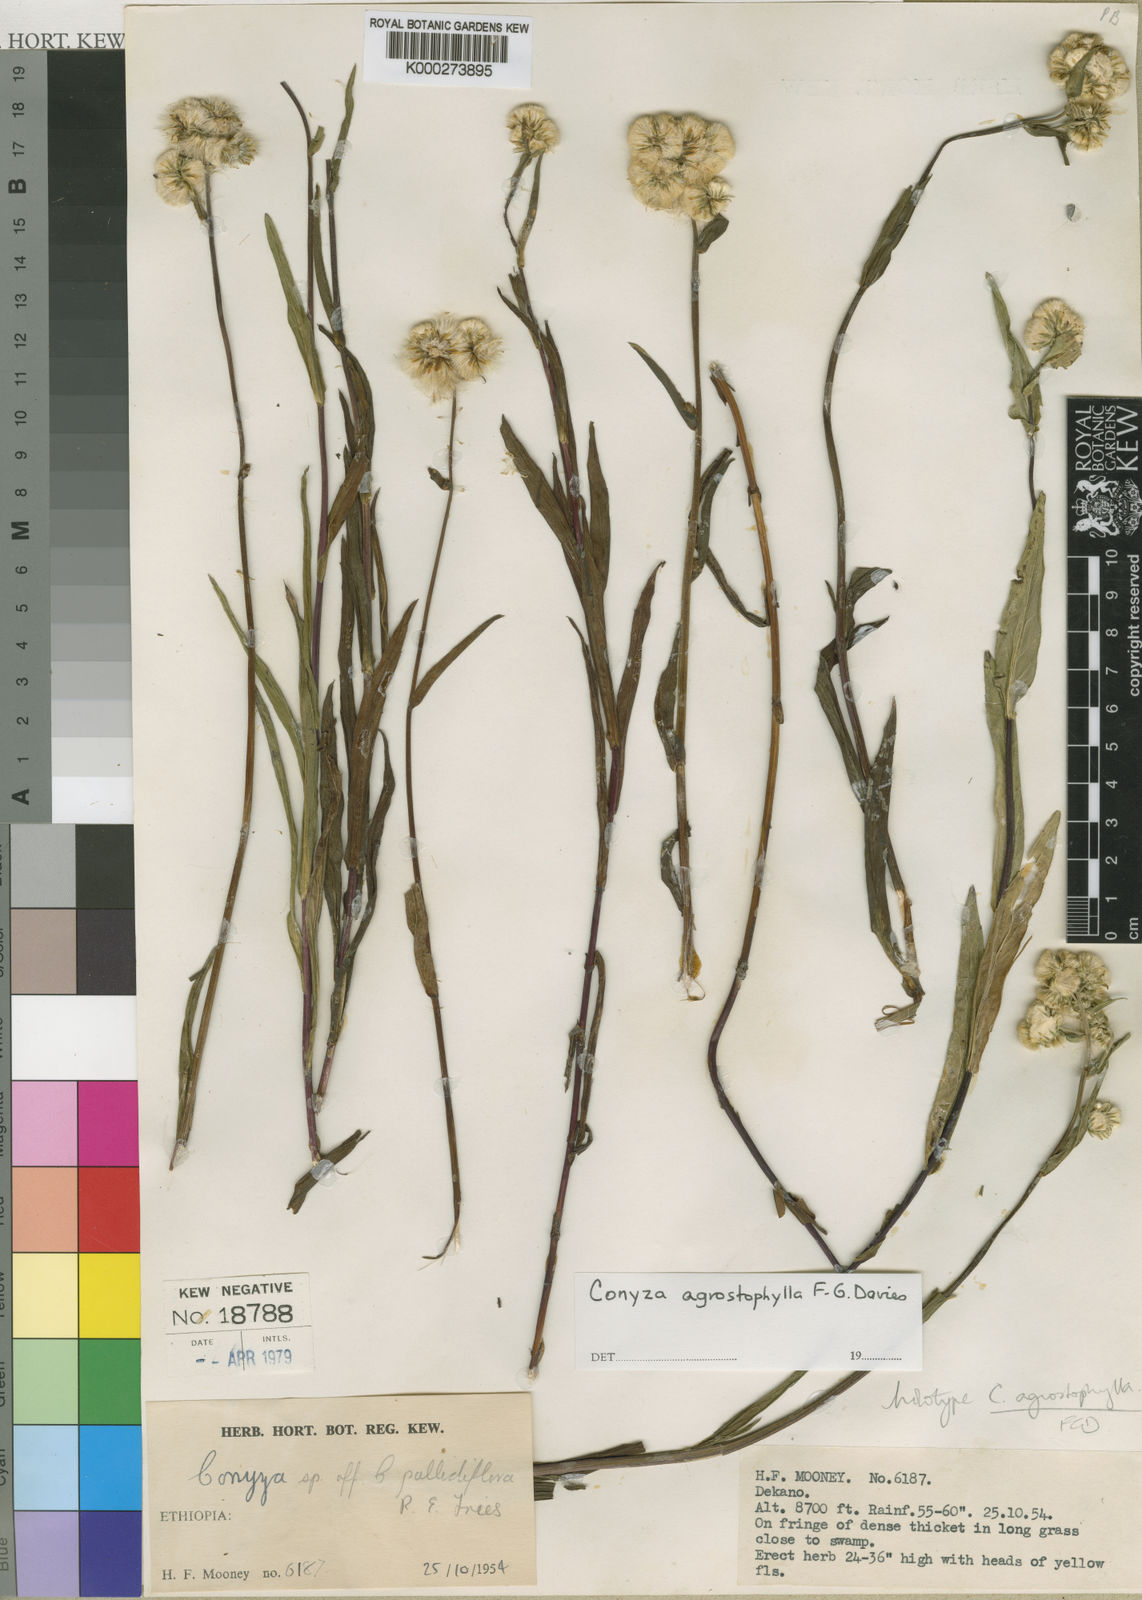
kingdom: Plantae
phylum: Tracheophyta
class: Magnoliopsida
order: Asterales
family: Asteraceae
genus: Conyza
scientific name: Conyza agrostophylla
